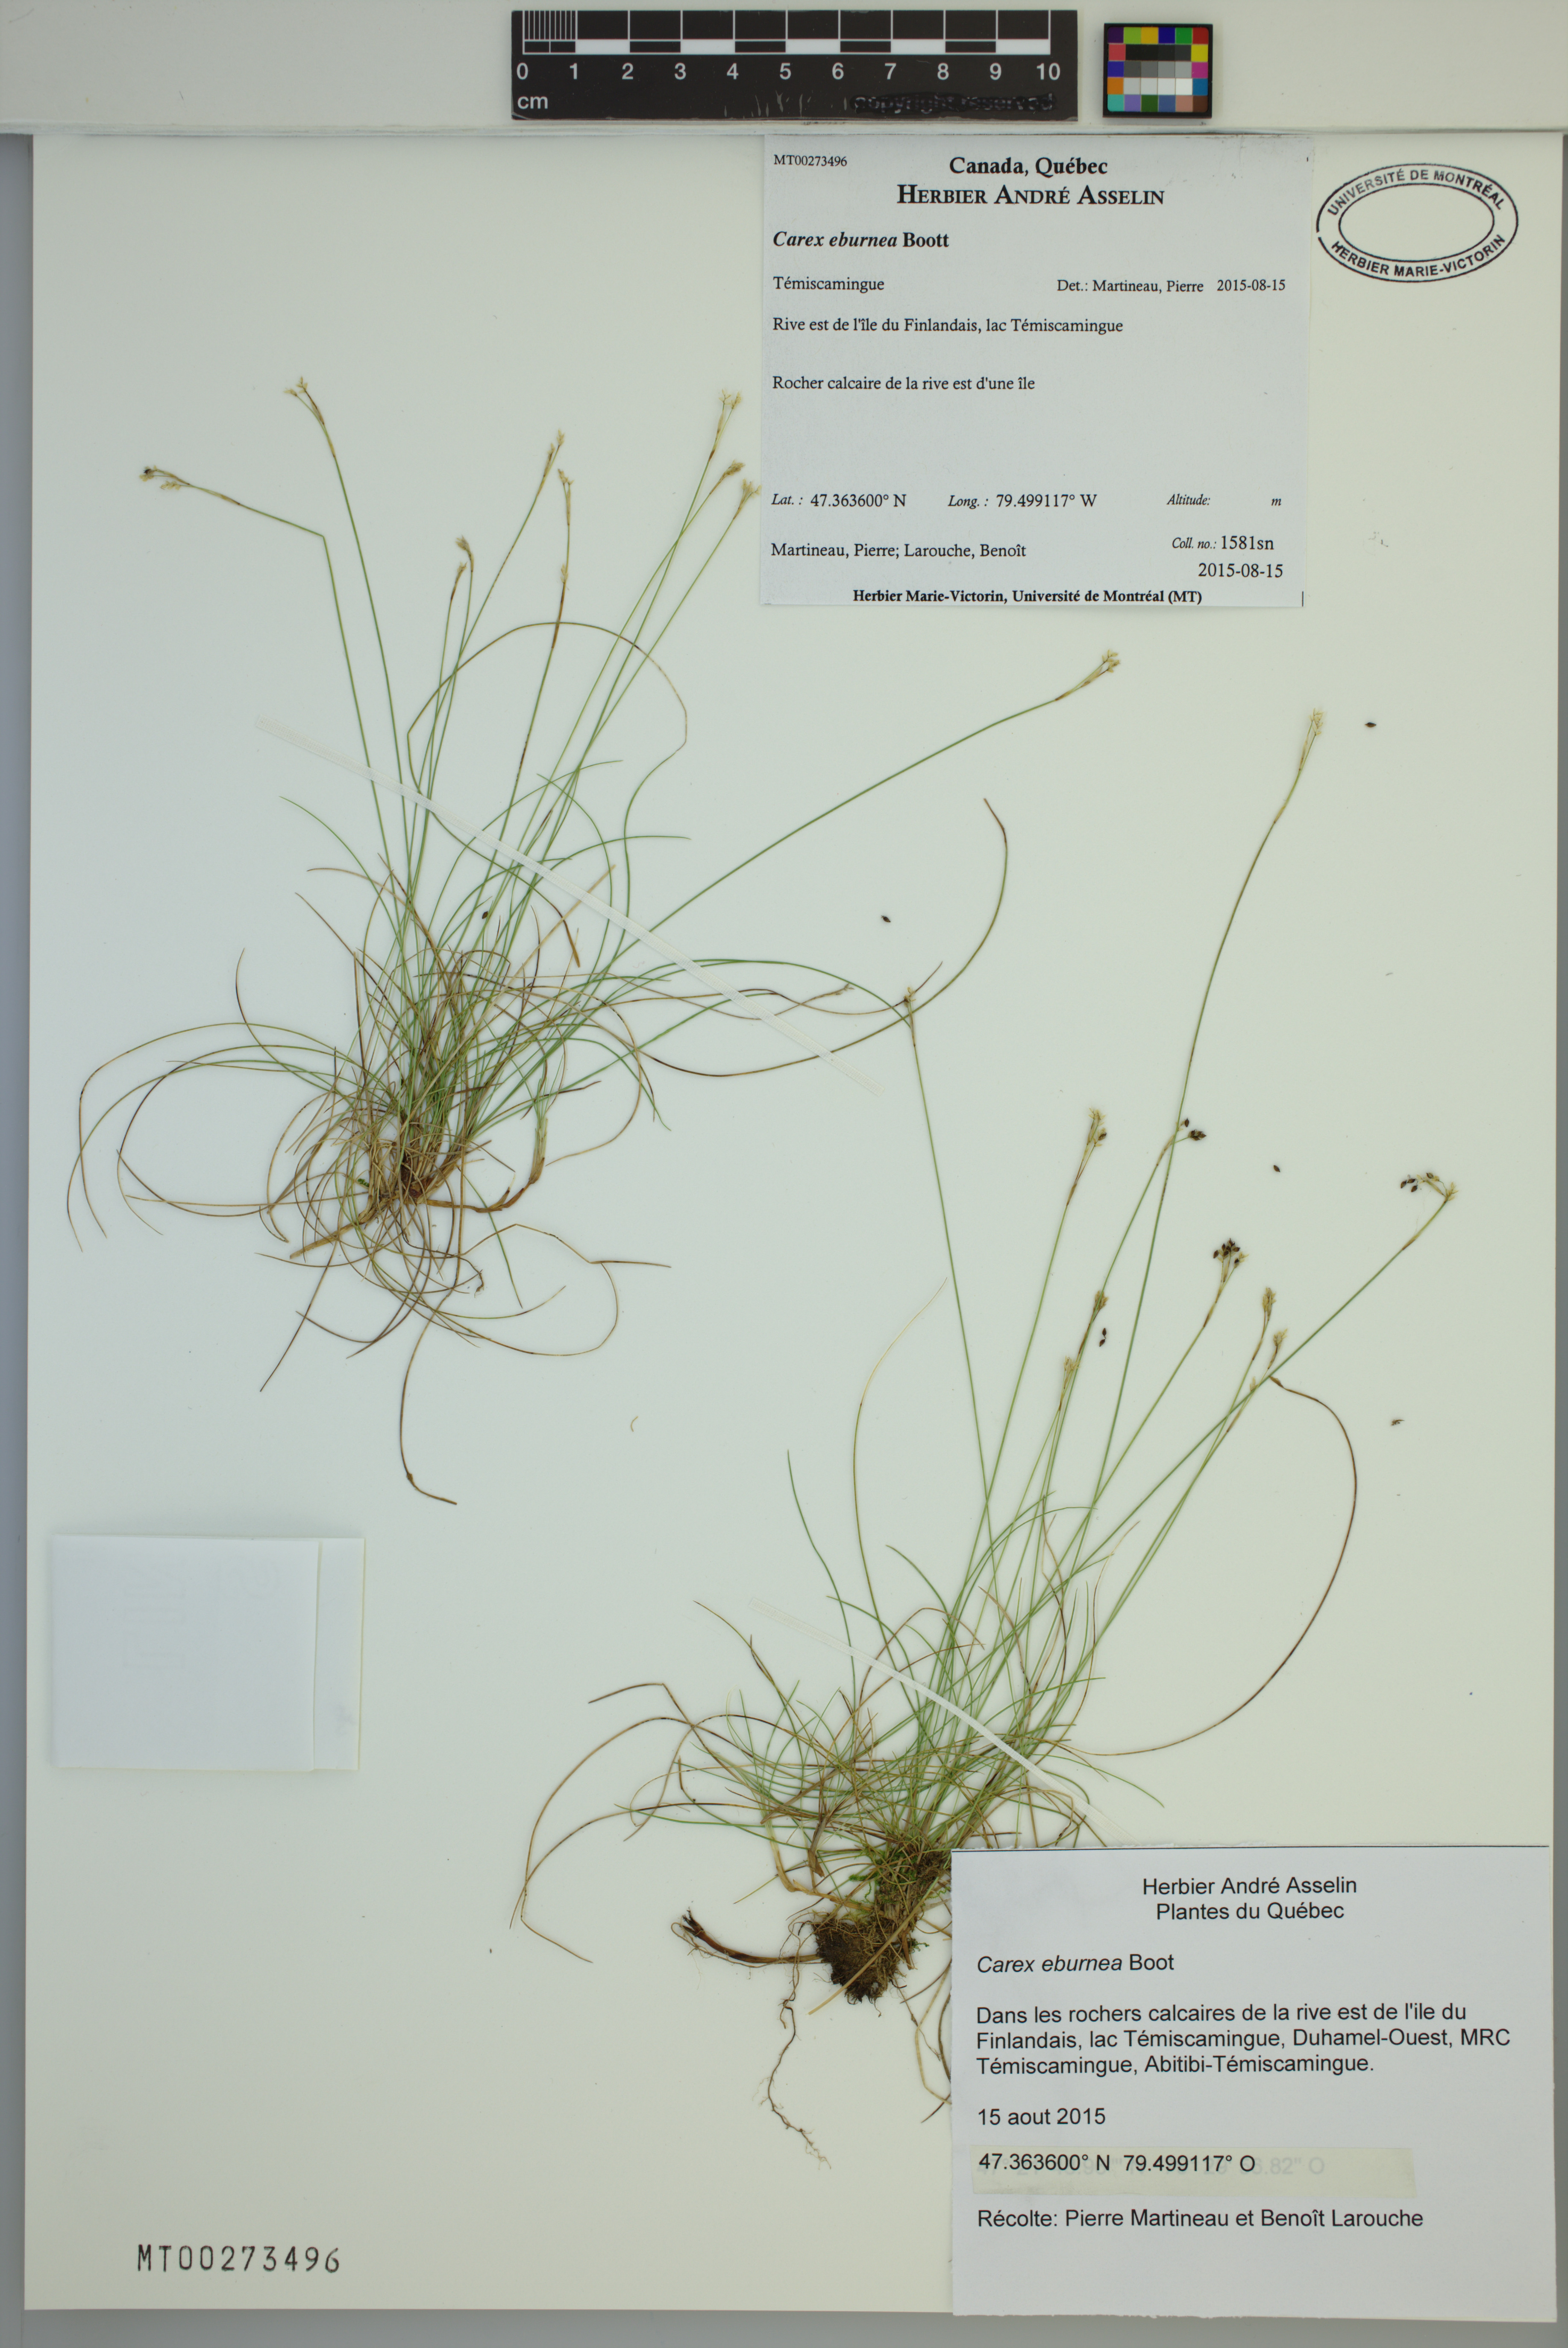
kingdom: Plantae
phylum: Tracheophyta
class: Liliopsida
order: Poales
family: Cyperaceae
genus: Carex
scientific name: Carex eburnea
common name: Bristle-leaved sedge
